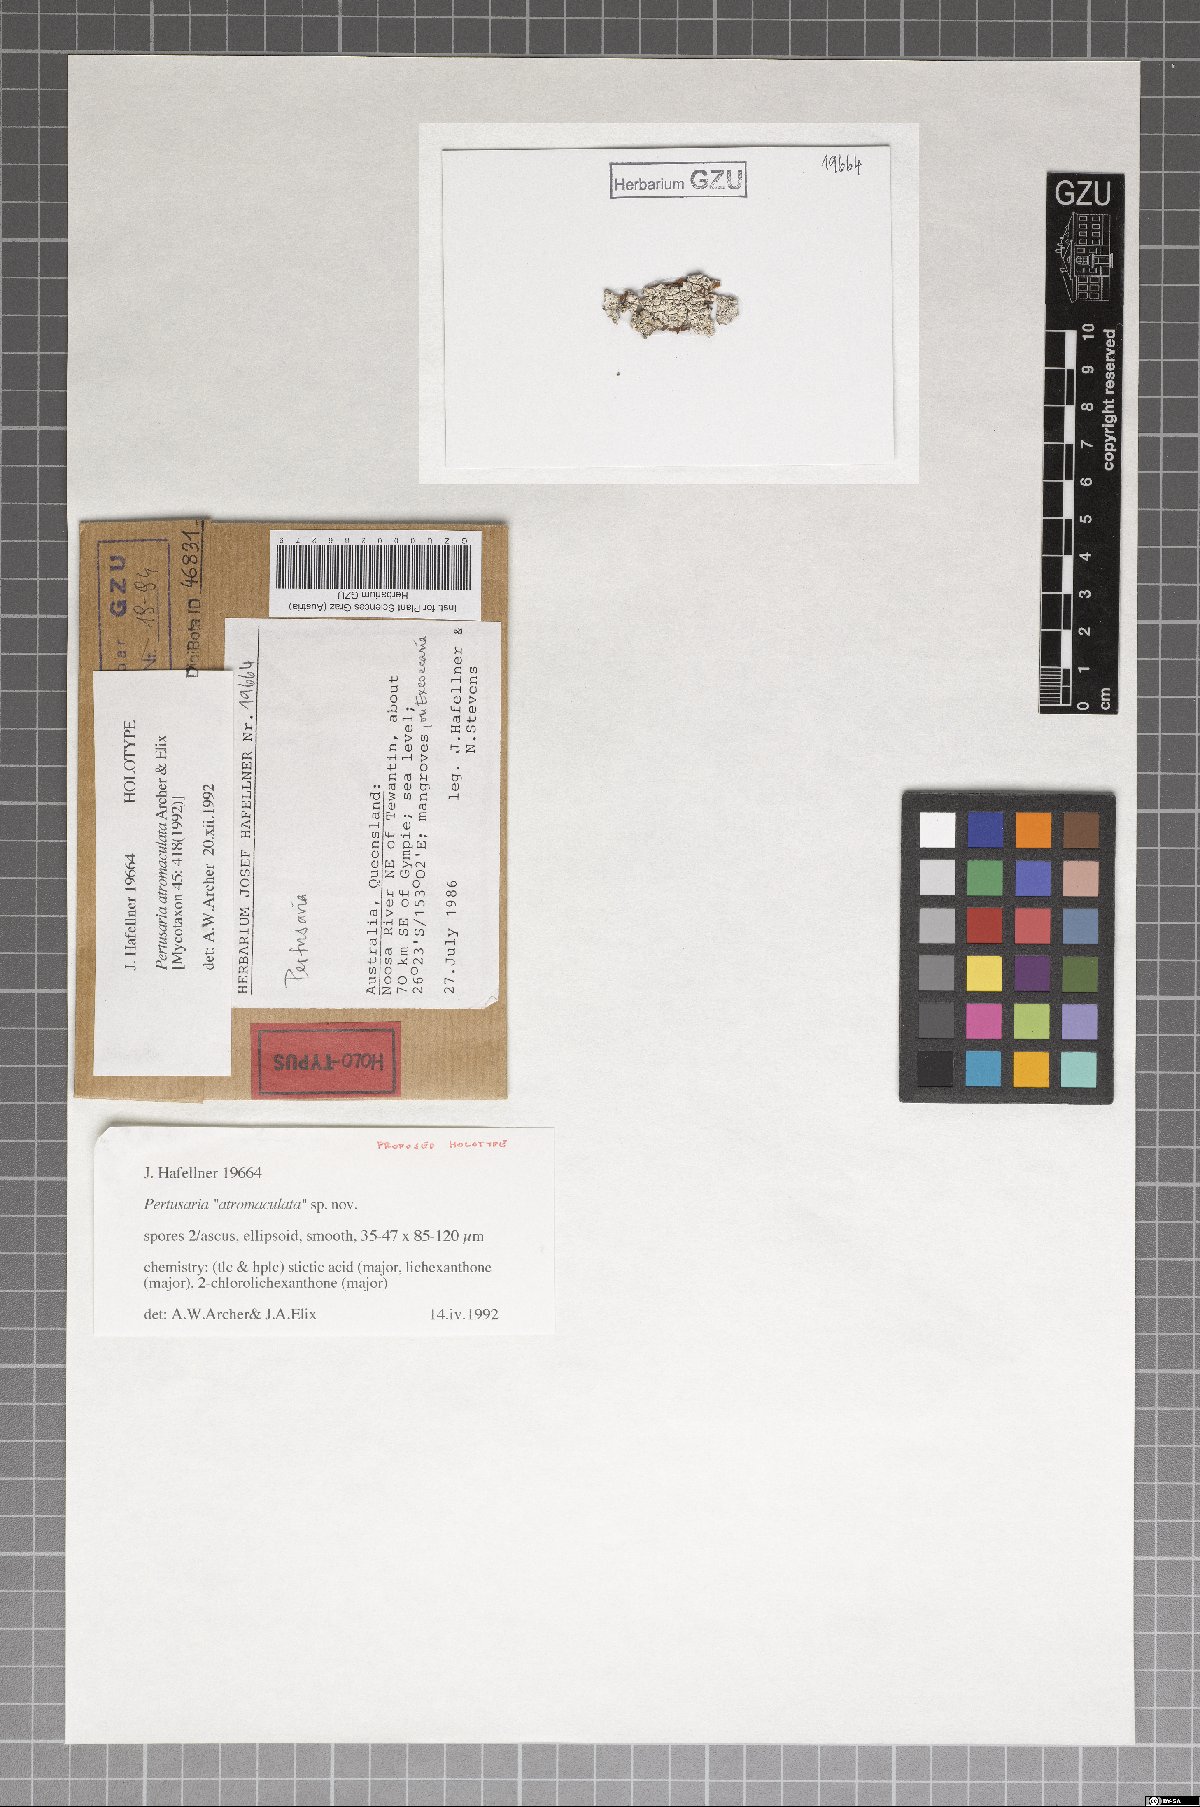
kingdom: Fungi
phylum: Ascomycota
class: Lecanoromycetes
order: Pertusariales
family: Pertusariaceae
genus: Pertusaria
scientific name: Pertusaria atromaculata
